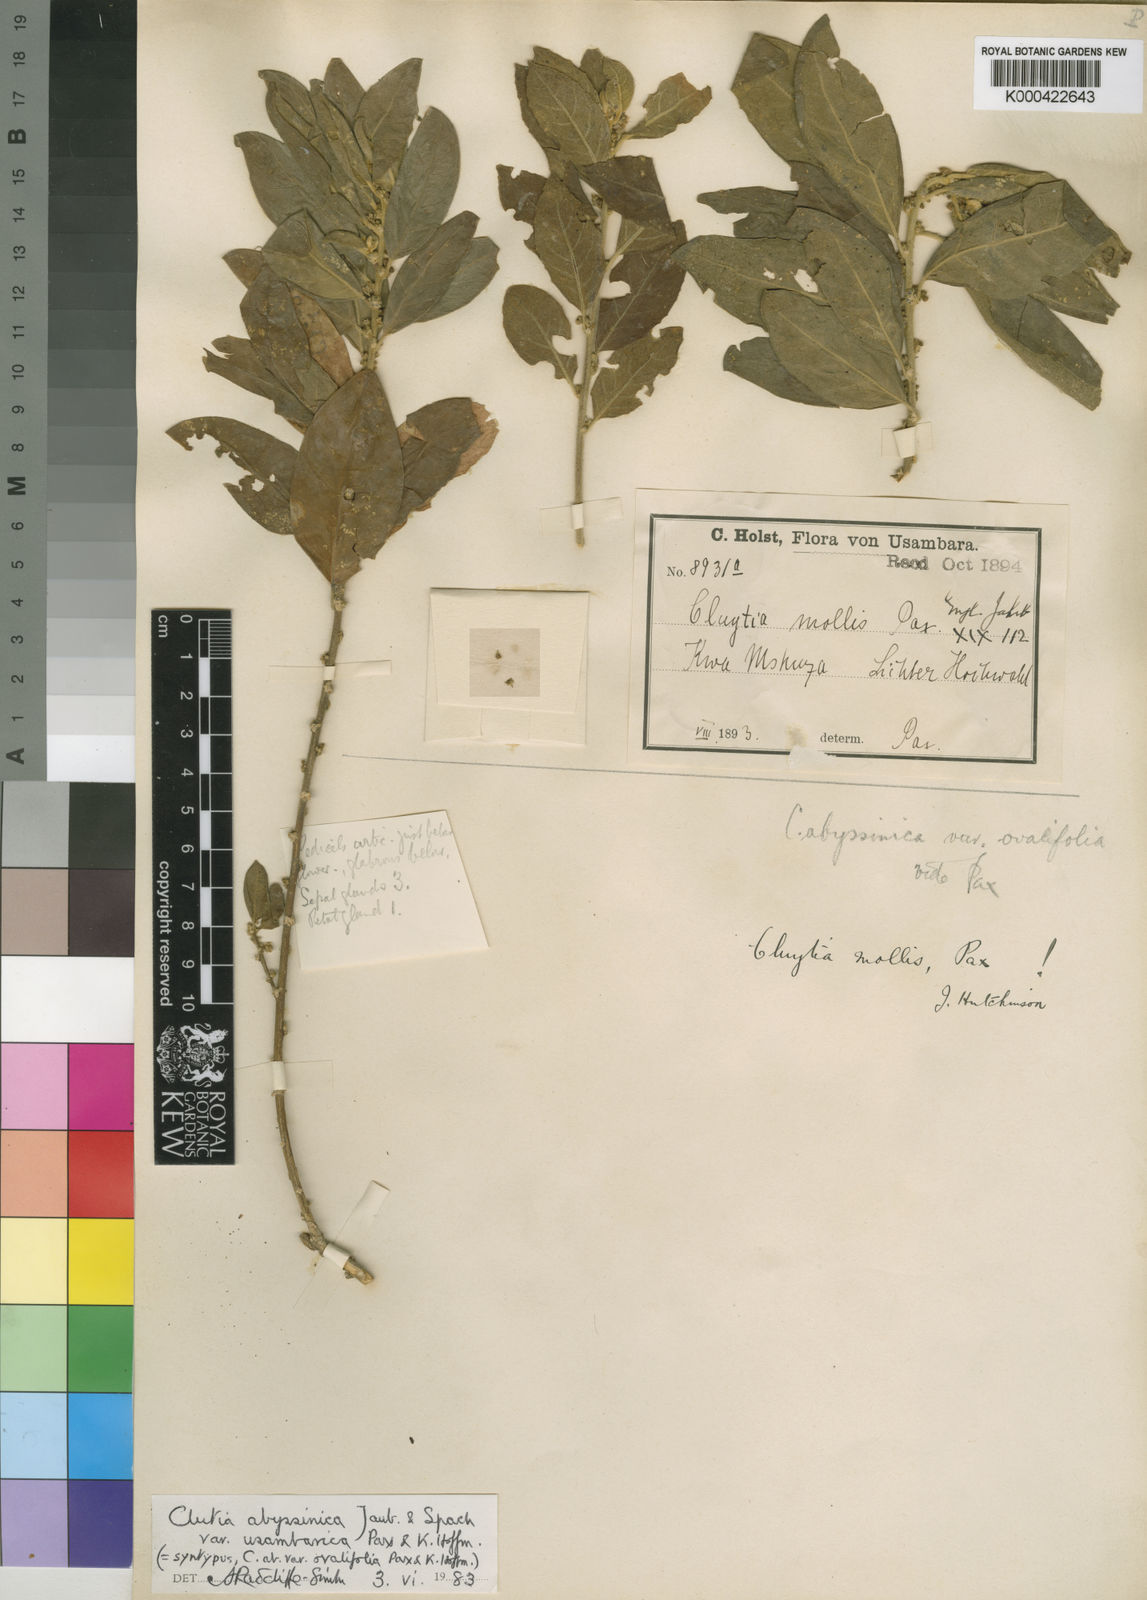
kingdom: Plantae
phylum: Tracheophyta
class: Magnoliopsida
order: Malpighiales
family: Peraceae
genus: Clutia
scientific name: Clutia abyssinica
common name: Large lightning bush
